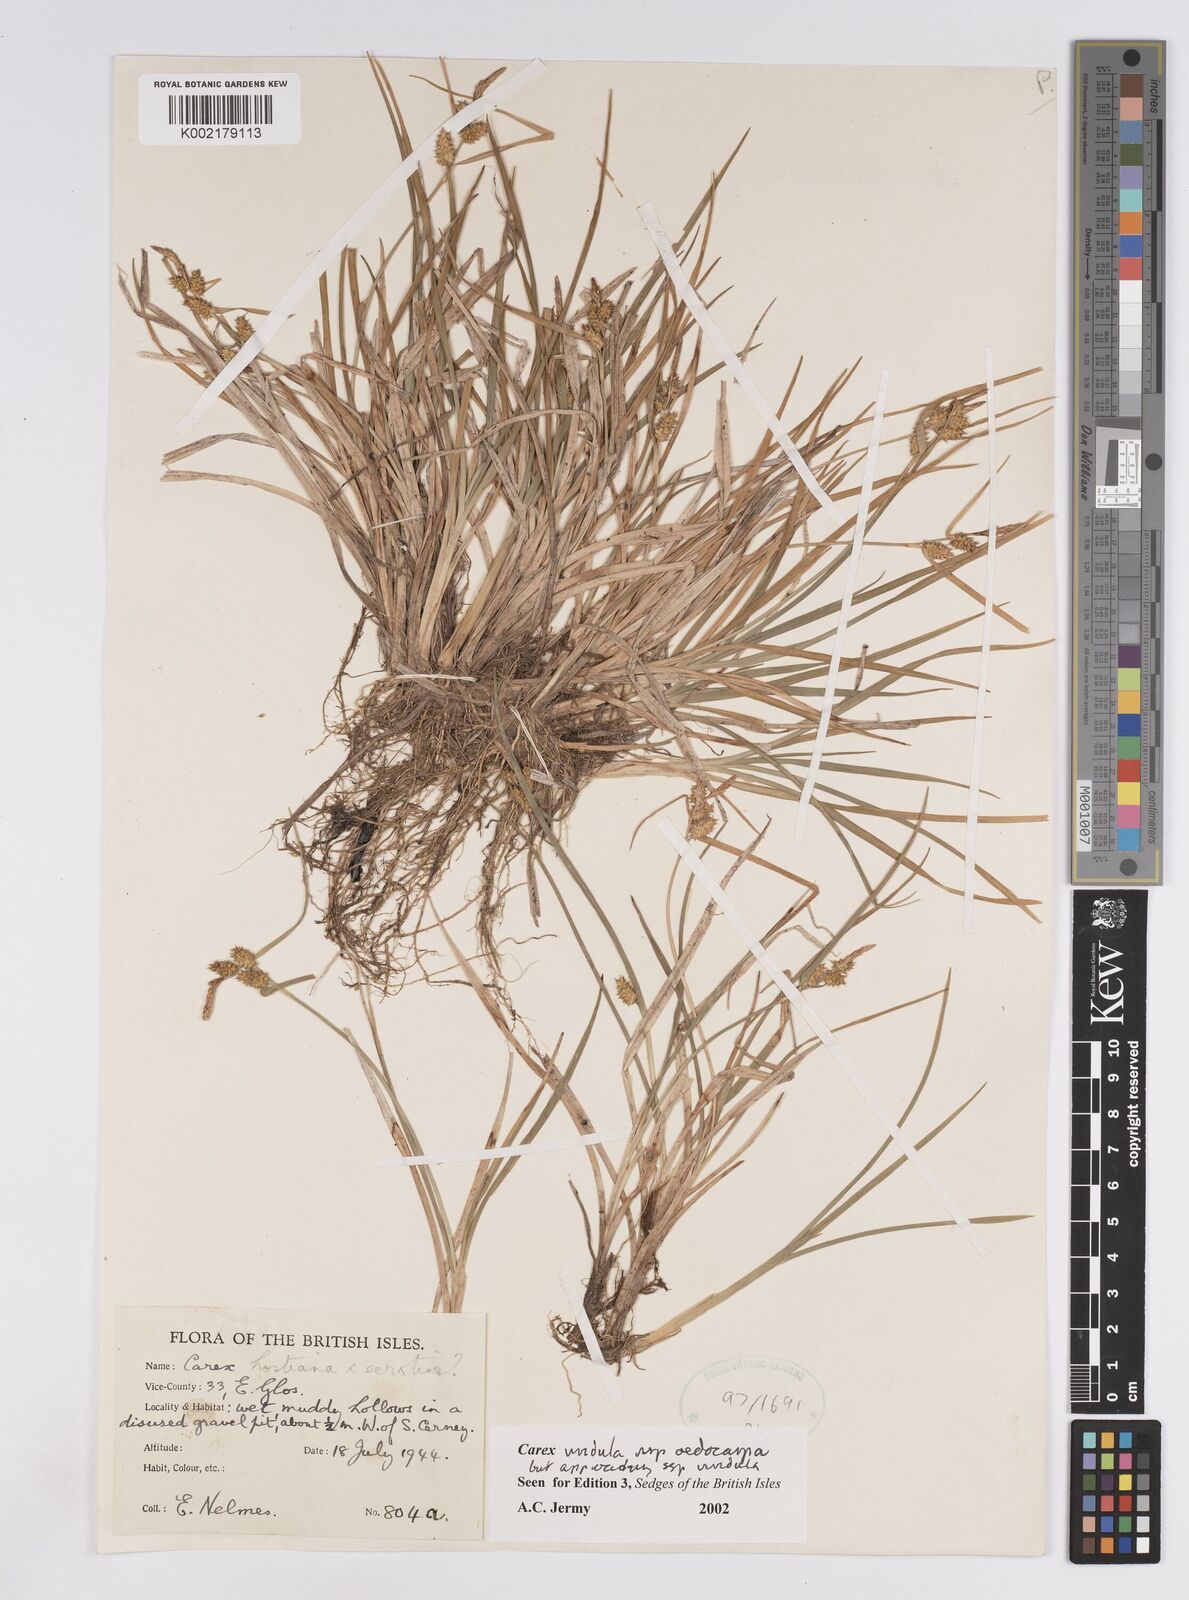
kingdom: Plantae
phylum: Tracheophyta
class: Liliopsida
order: Poales
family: Cyperaceae
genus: Carex
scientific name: Carex demissa
